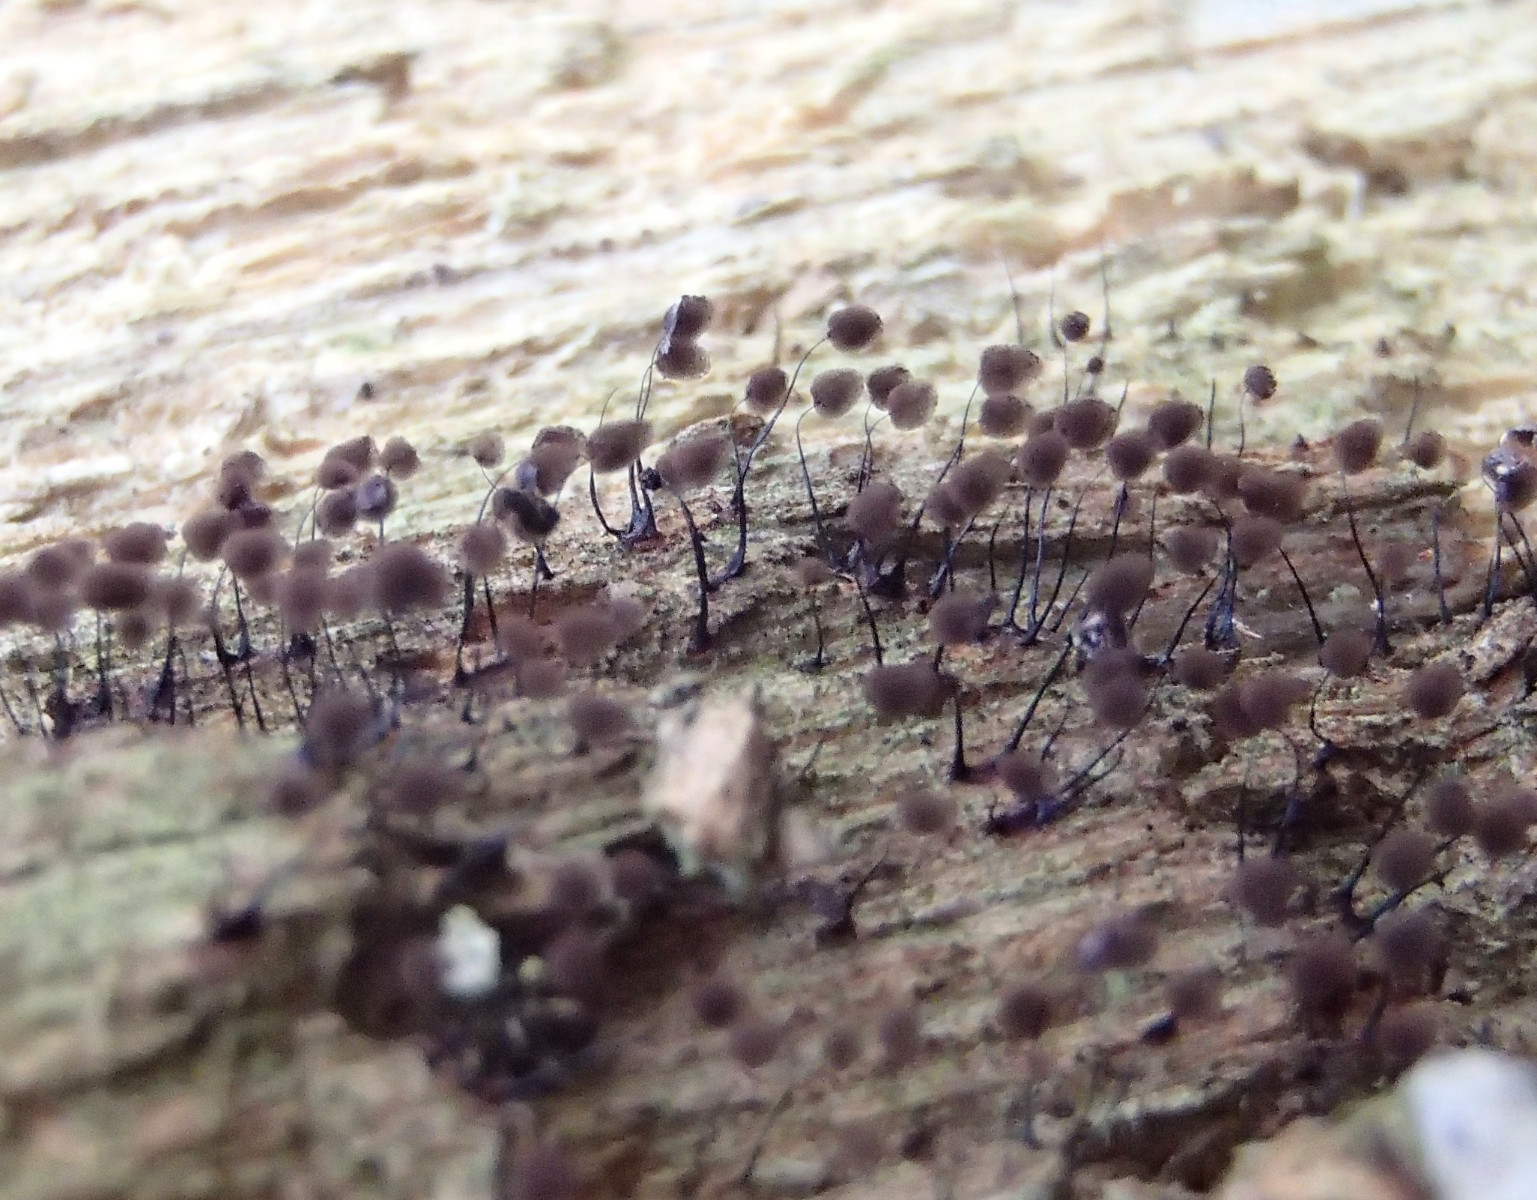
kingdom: Protozoa
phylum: Mycetozoa
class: Myxomycetes
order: Stemonitidales
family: Stemonitidaceae
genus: Comatricha
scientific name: Comatricha nigra
